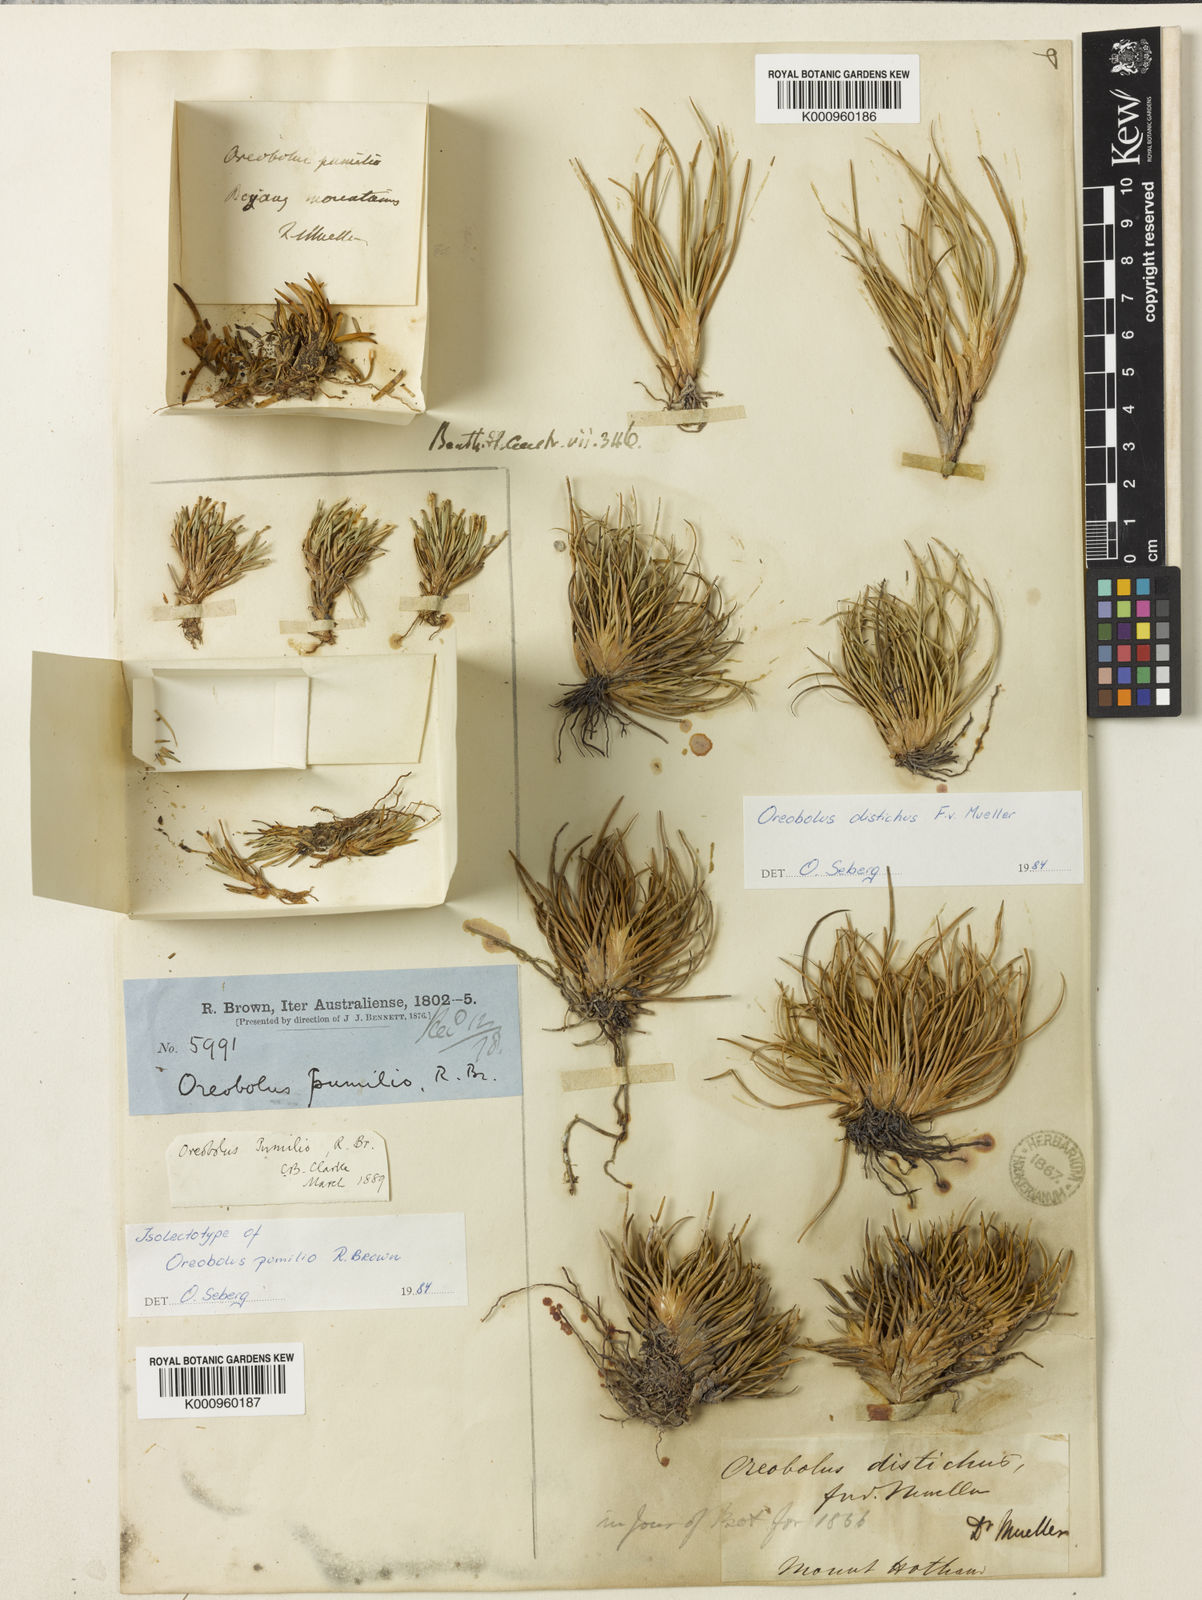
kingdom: Plantae
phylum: Tracheophyta
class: Liliopsida
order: Poales
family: Cyperaceae
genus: Oreobolus
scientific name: Oreobolus pumilio
